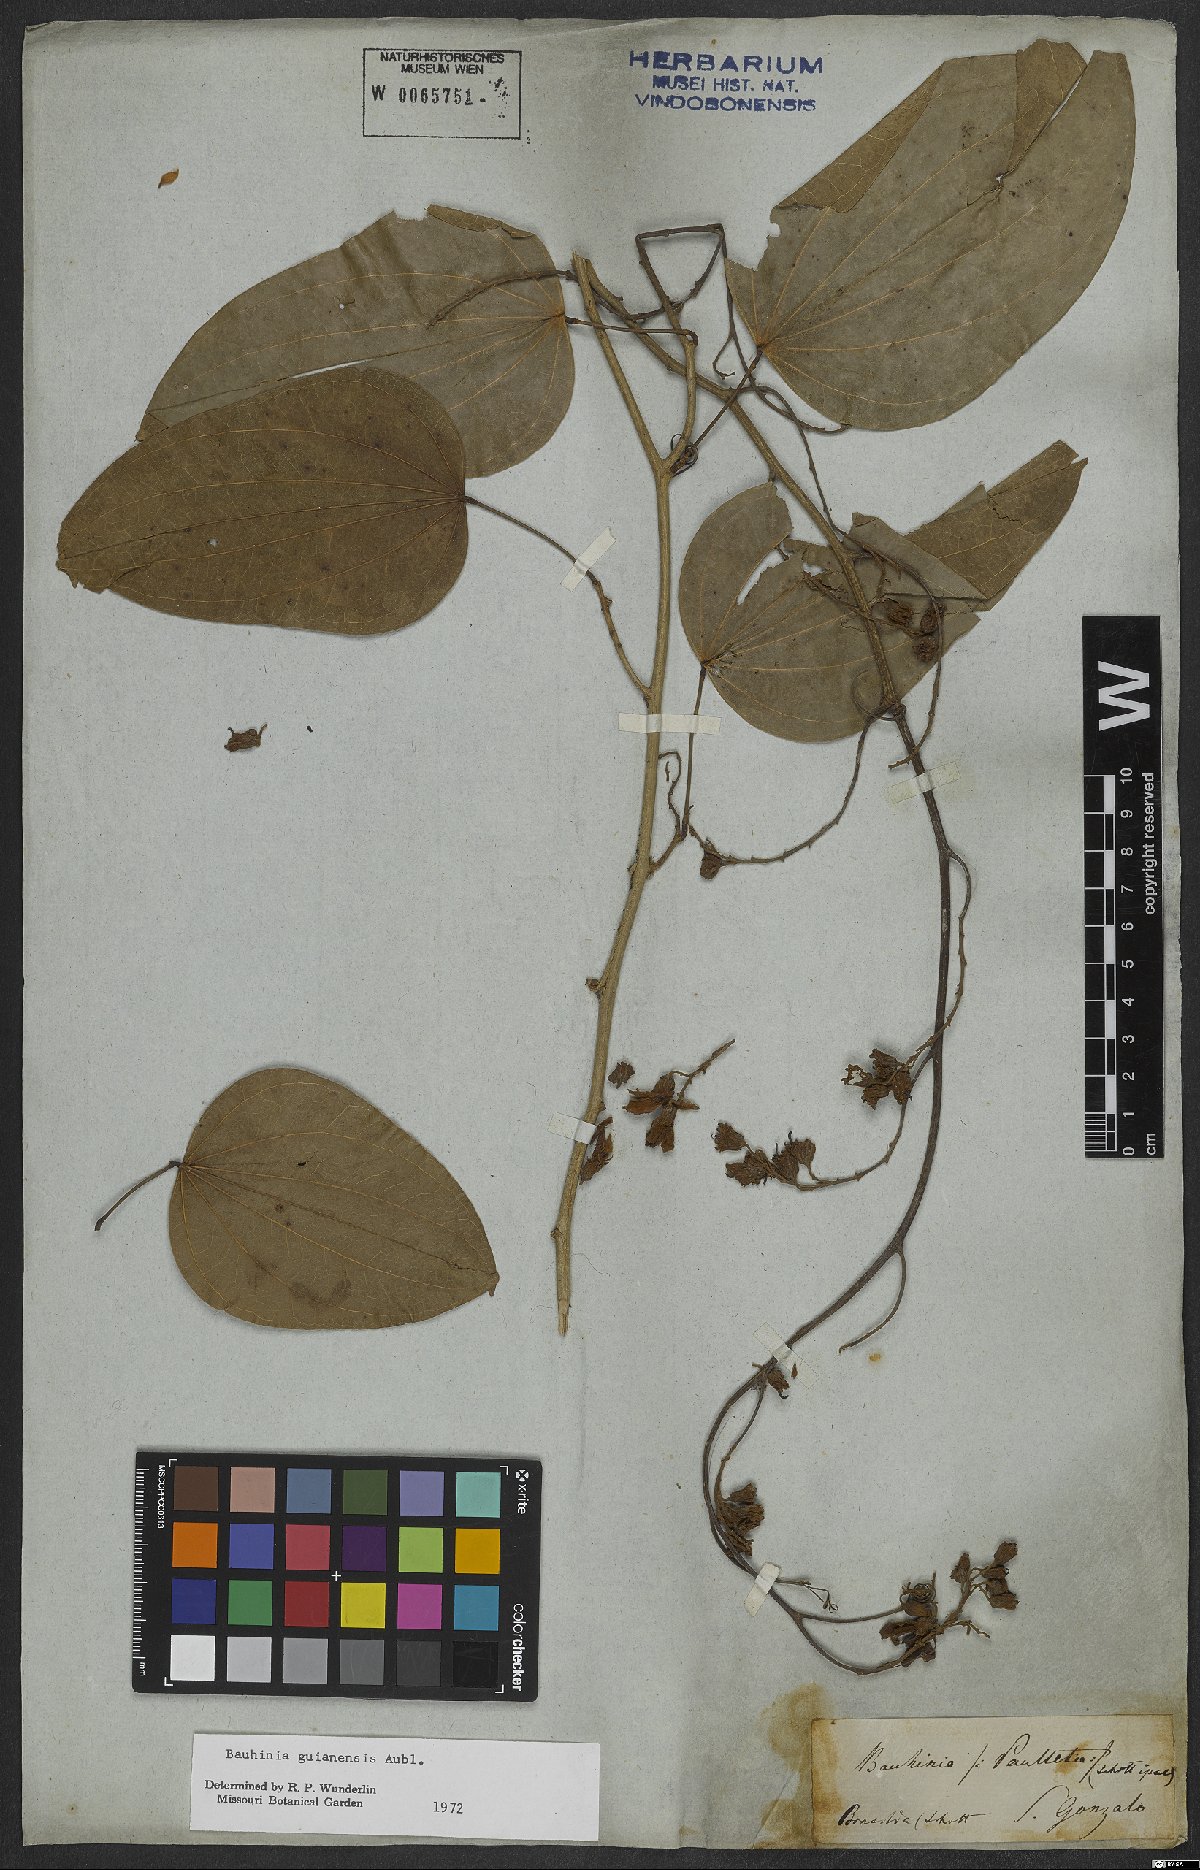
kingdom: Plantae
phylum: Tracheophyta
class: Magnoliopsida
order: Fabales
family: Fabaceae
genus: Schnella
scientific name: Schnella guianensis
